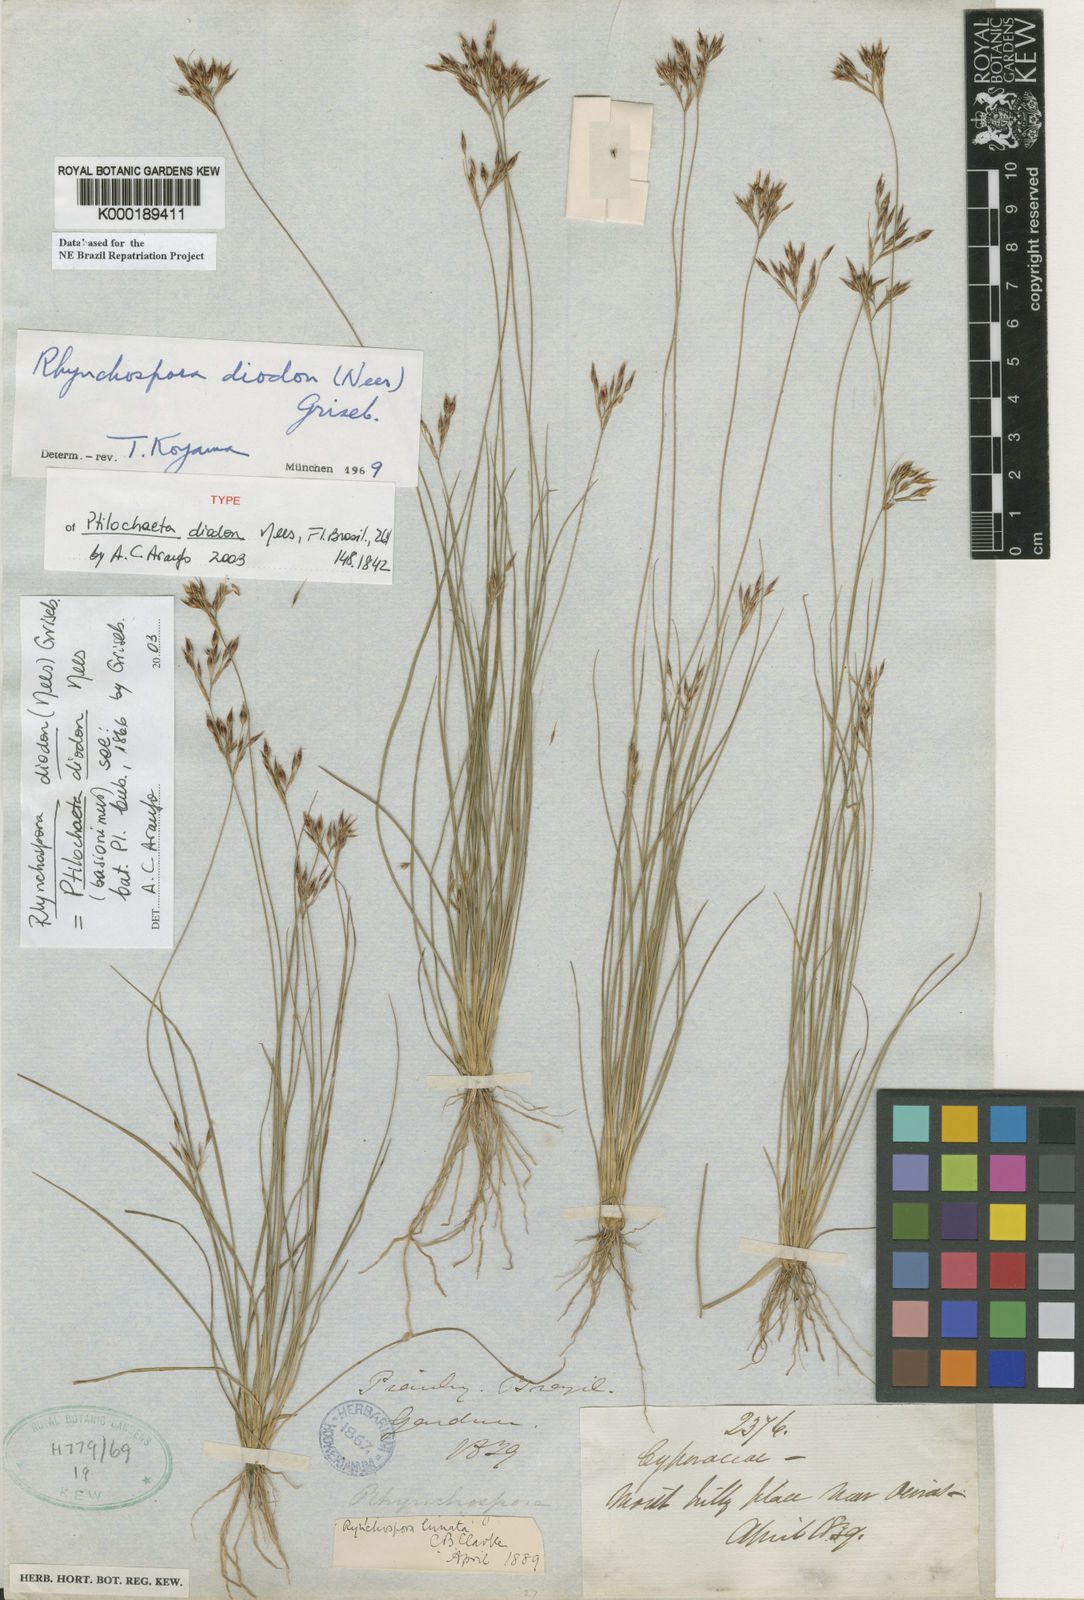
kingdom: Plantae
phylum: Tracheophyta
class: Liliopsida
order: Poales
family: Cyperaceae
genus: Rhynchospora
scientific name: Rhynchospora diodon
